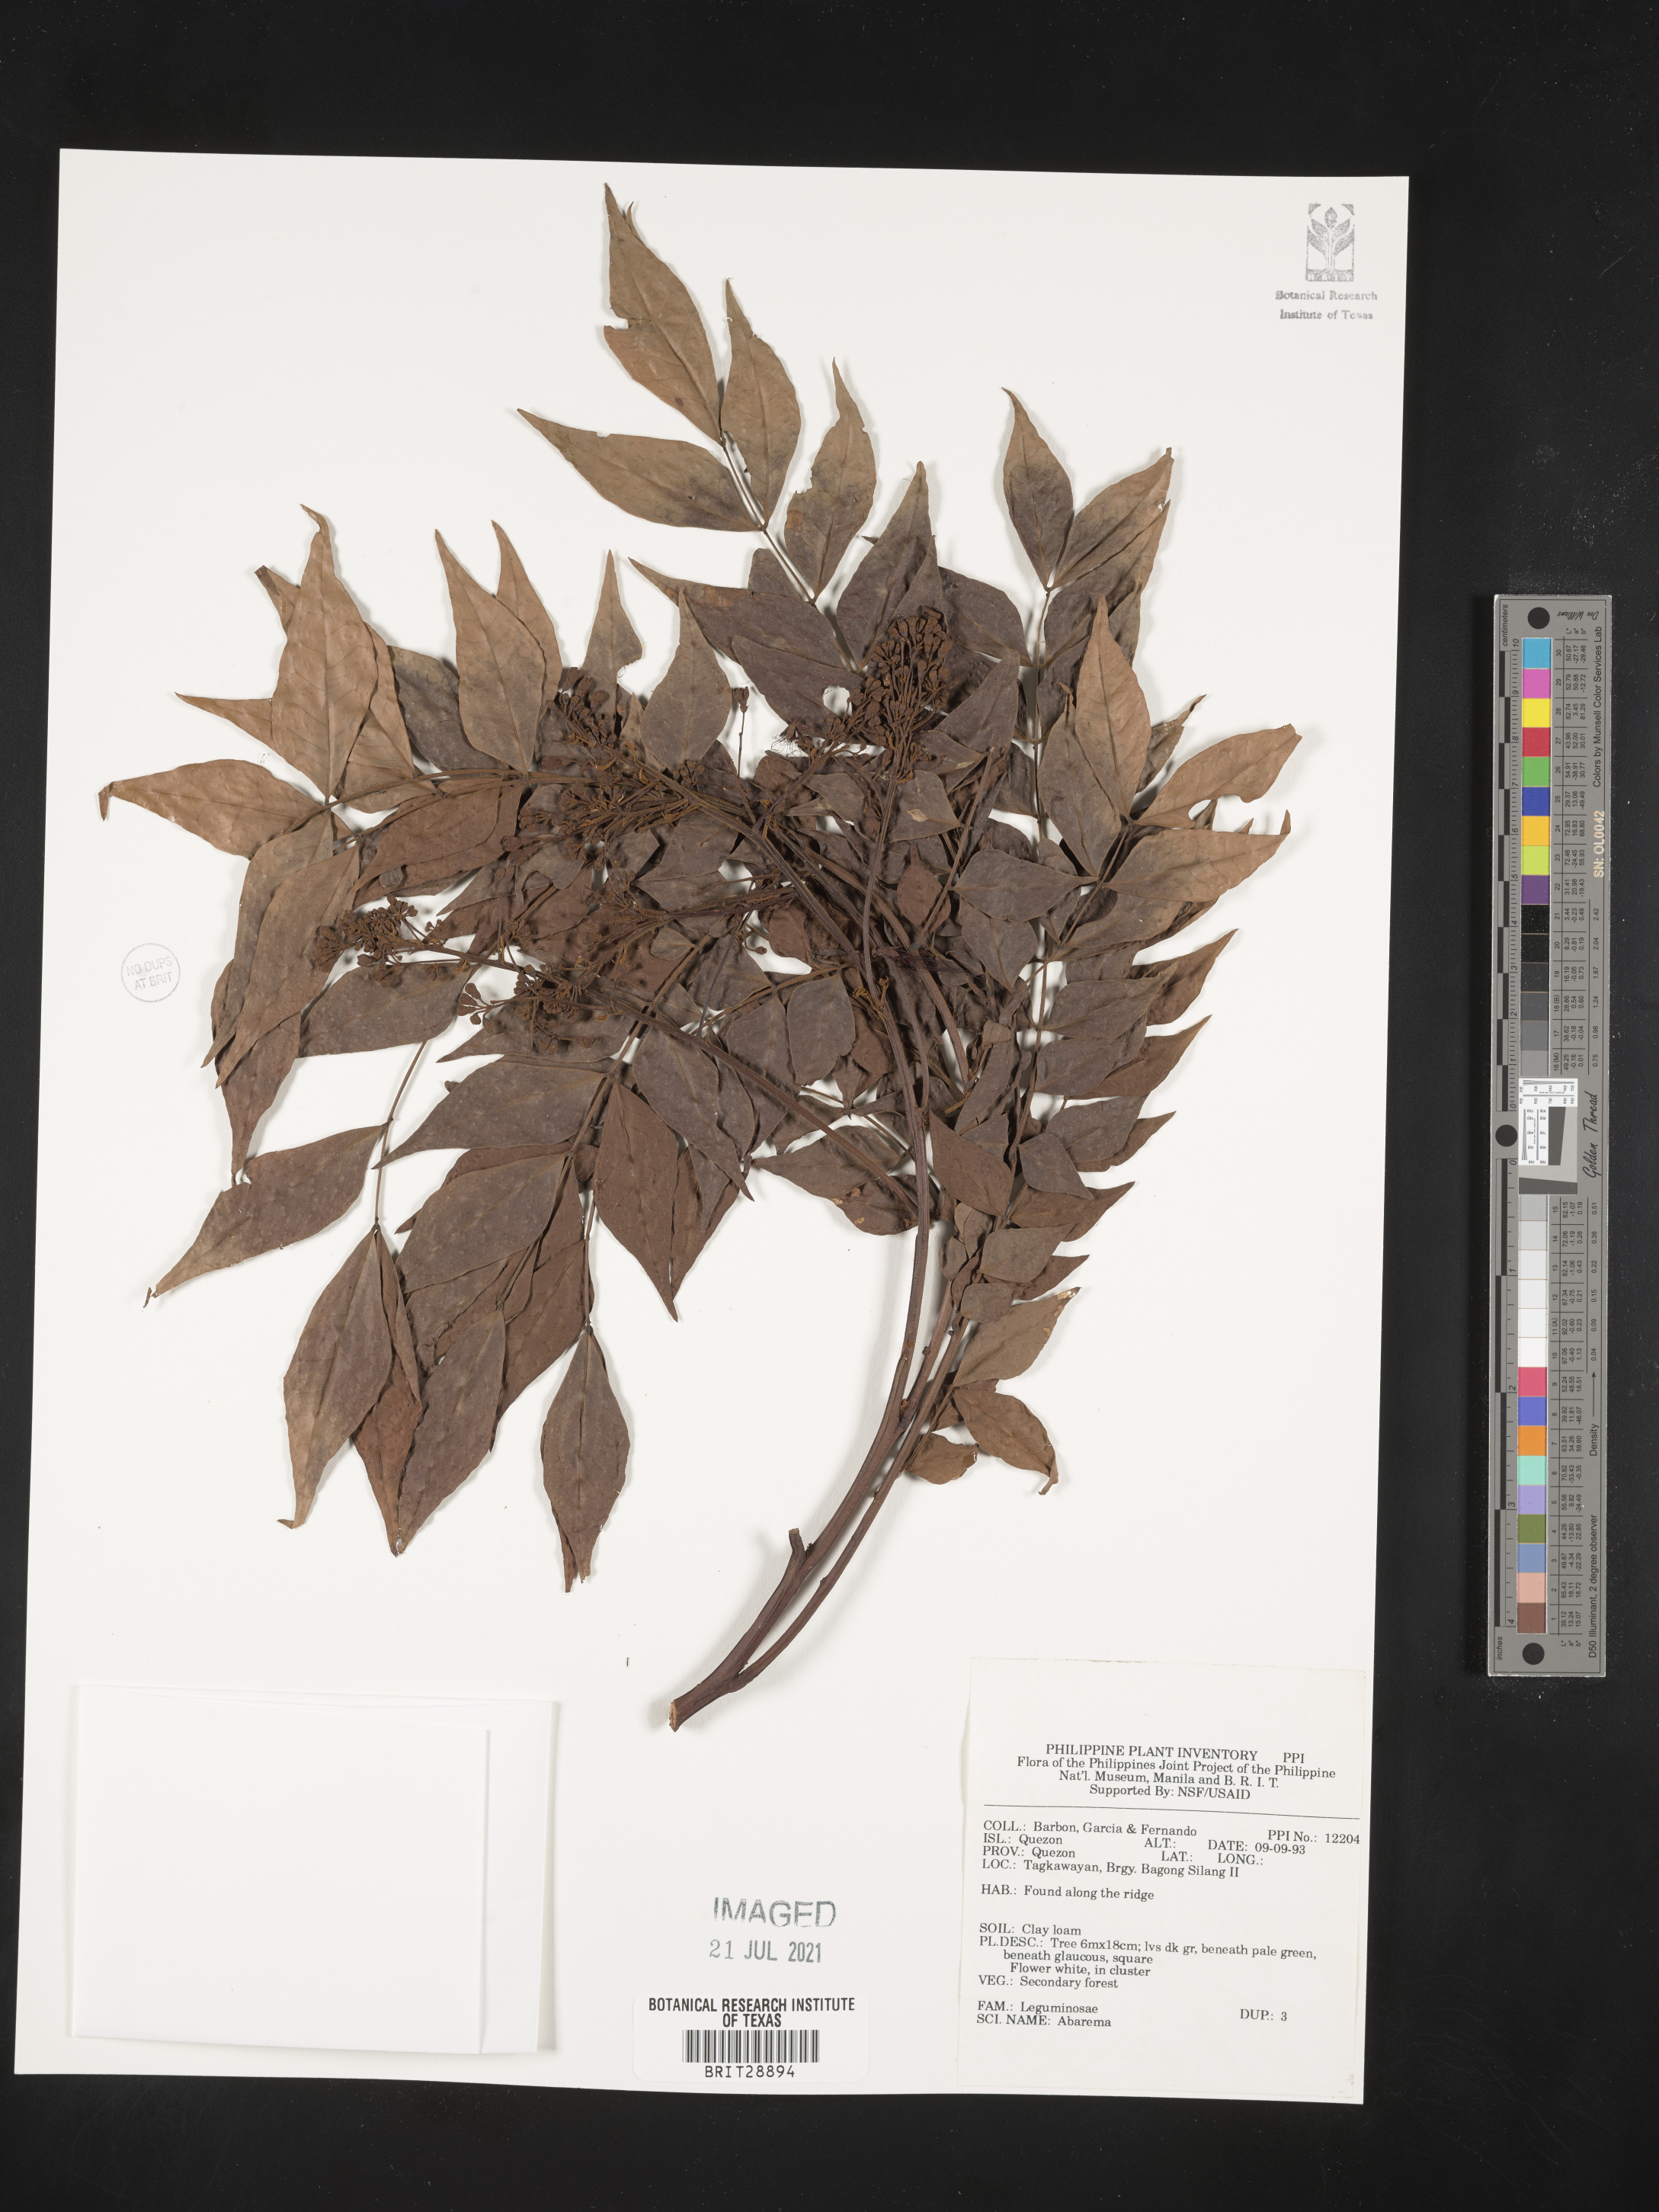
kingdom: Plantae
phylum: Tracheophyta
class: Magnoliopsida
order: Fabales
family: Fabaceae
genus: Abarema
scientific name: Abarema
